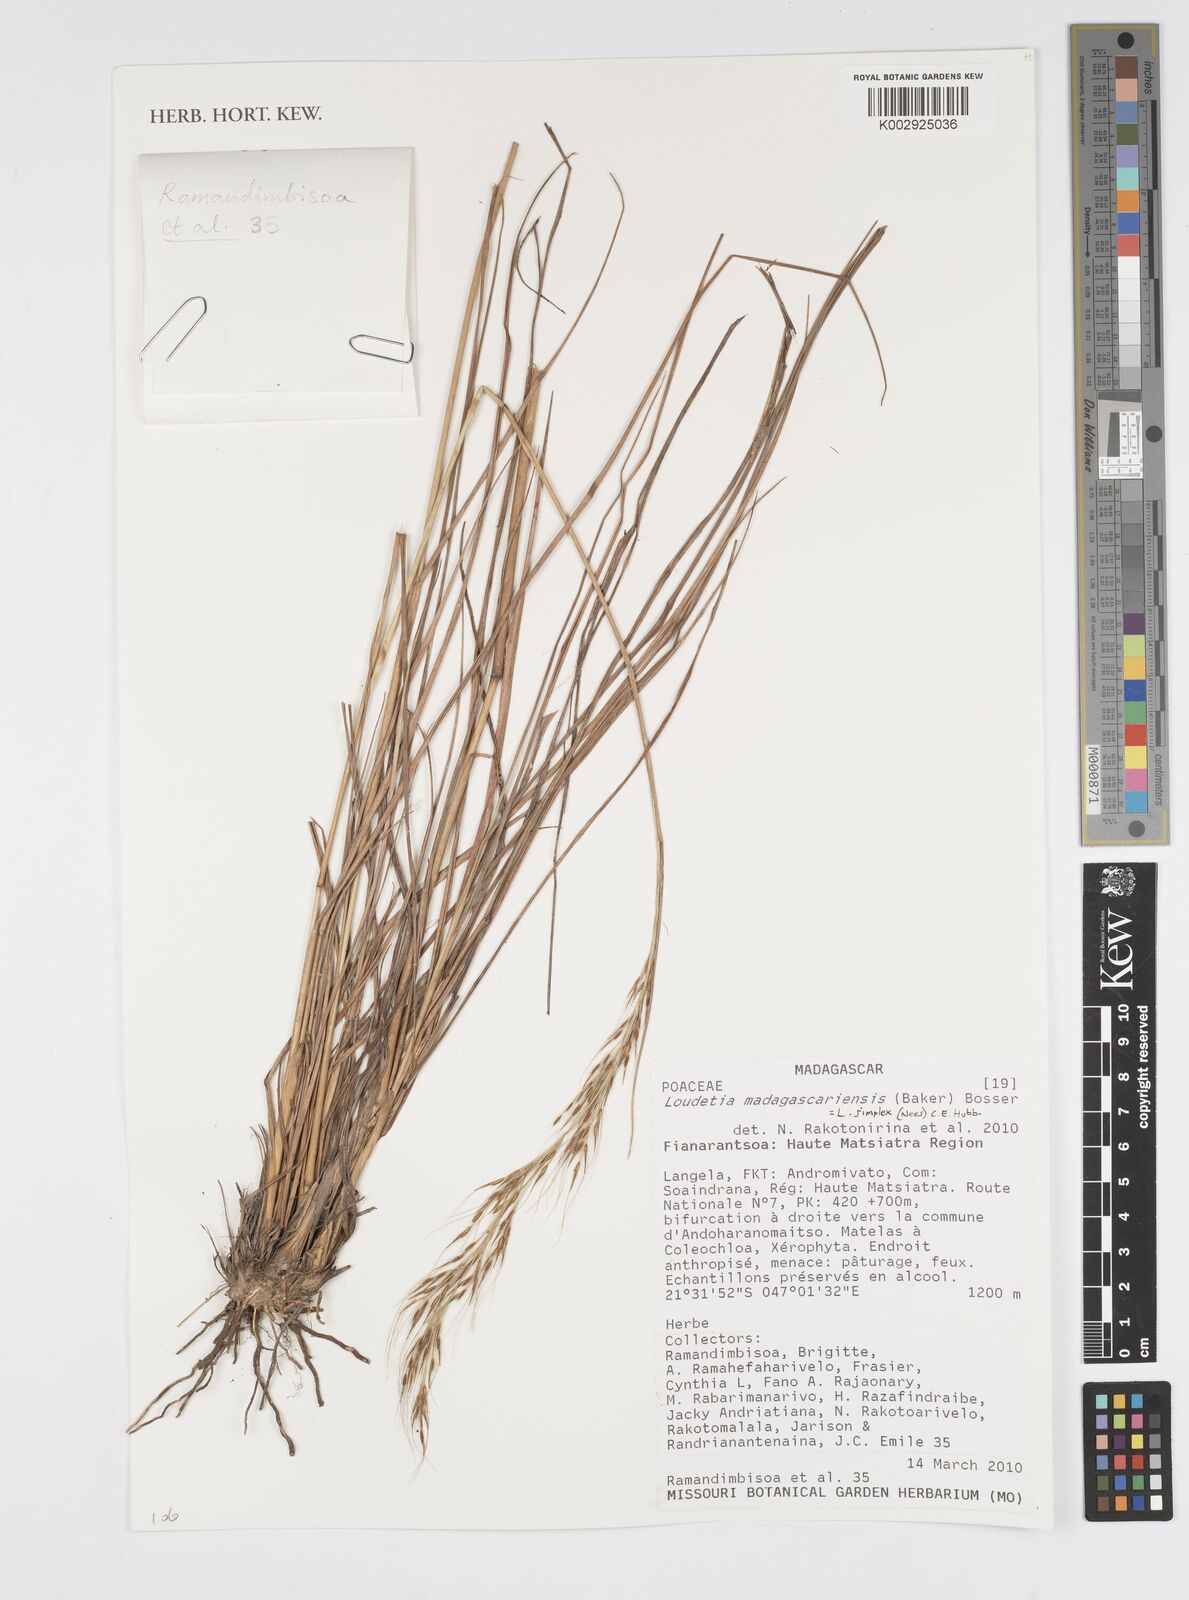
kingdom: Plantae
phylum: Tracheophyta
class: Liliopsida
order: Poales
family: Poaceae
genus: Loudetia
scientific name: Loudetia simplex
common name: Common russet grass
